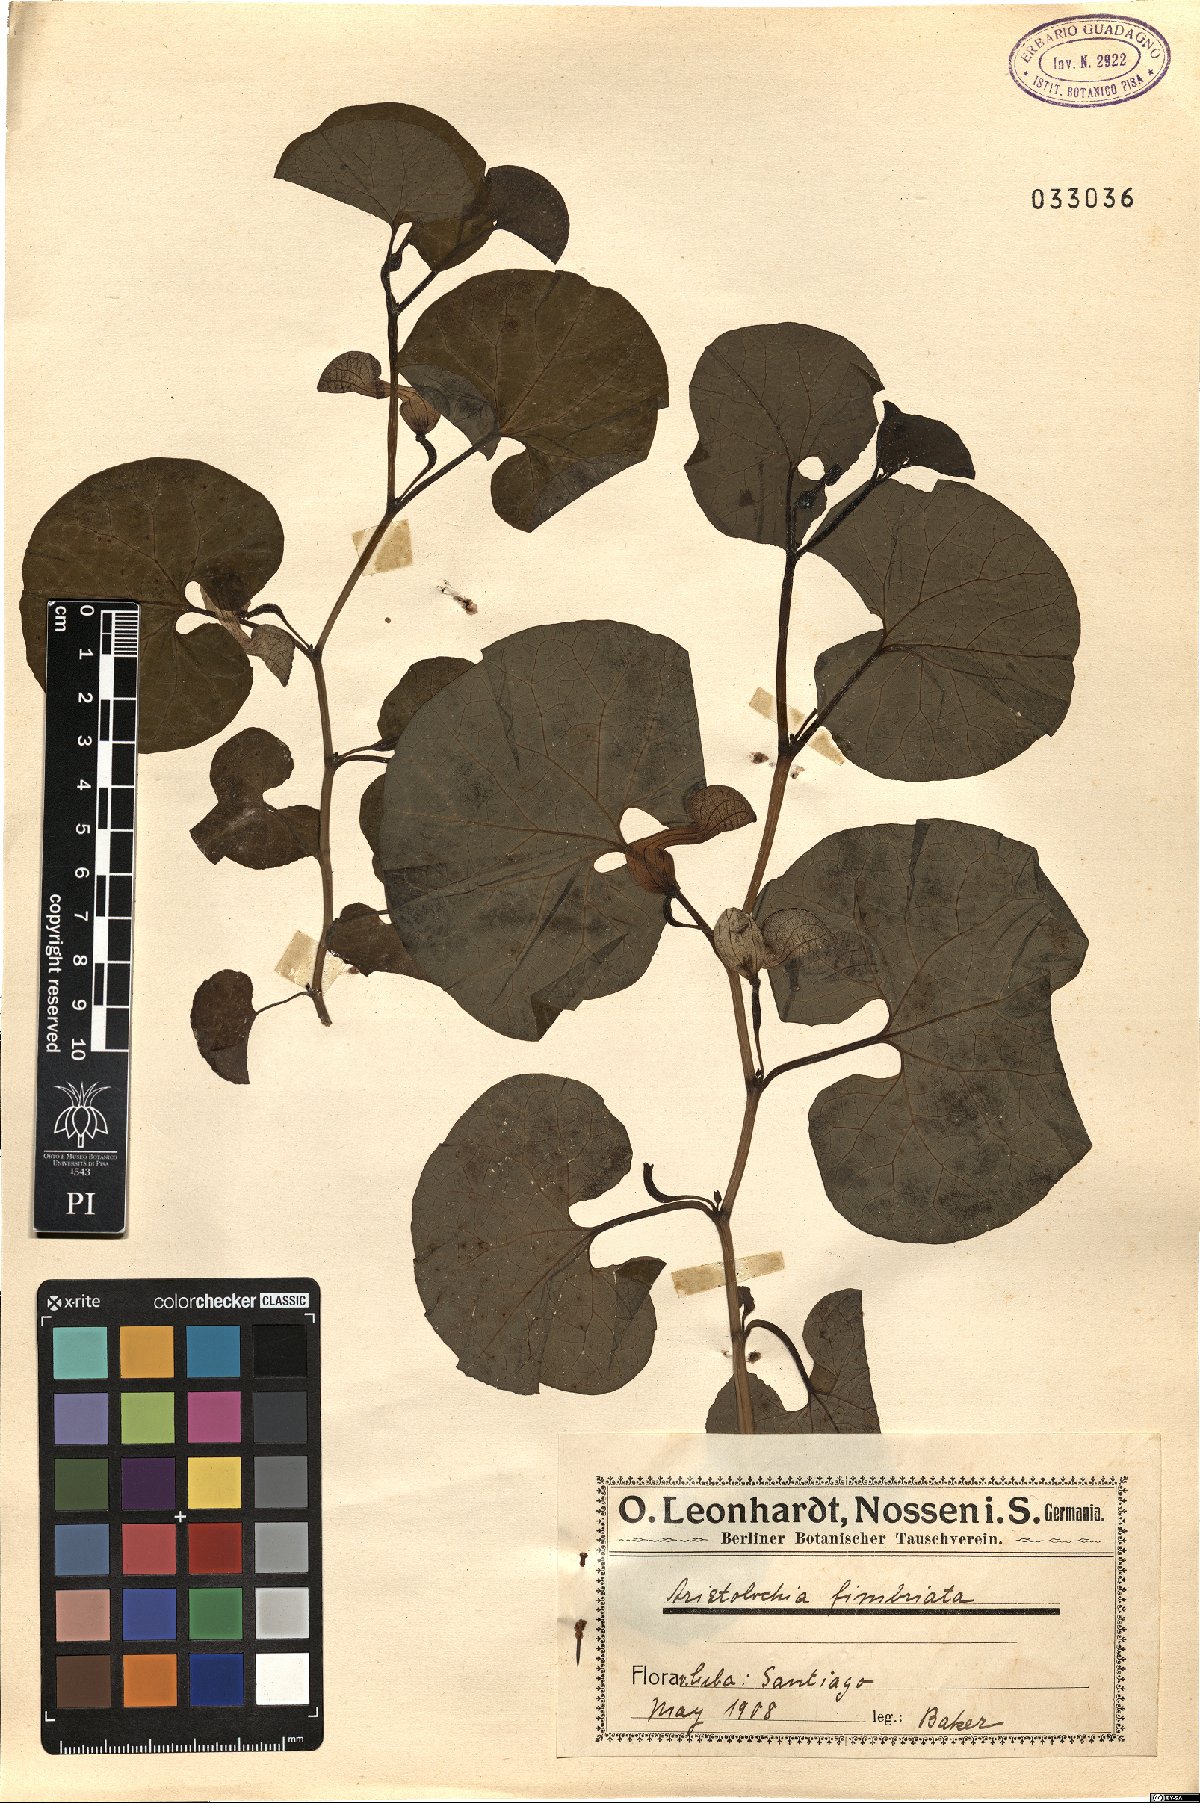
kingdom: Plantae
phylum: Tracheophyta
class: Magnoliopsida
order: Piperales
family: Aristolochiaceae
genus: Aristolochia
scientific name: Aristolochia fimbriata
